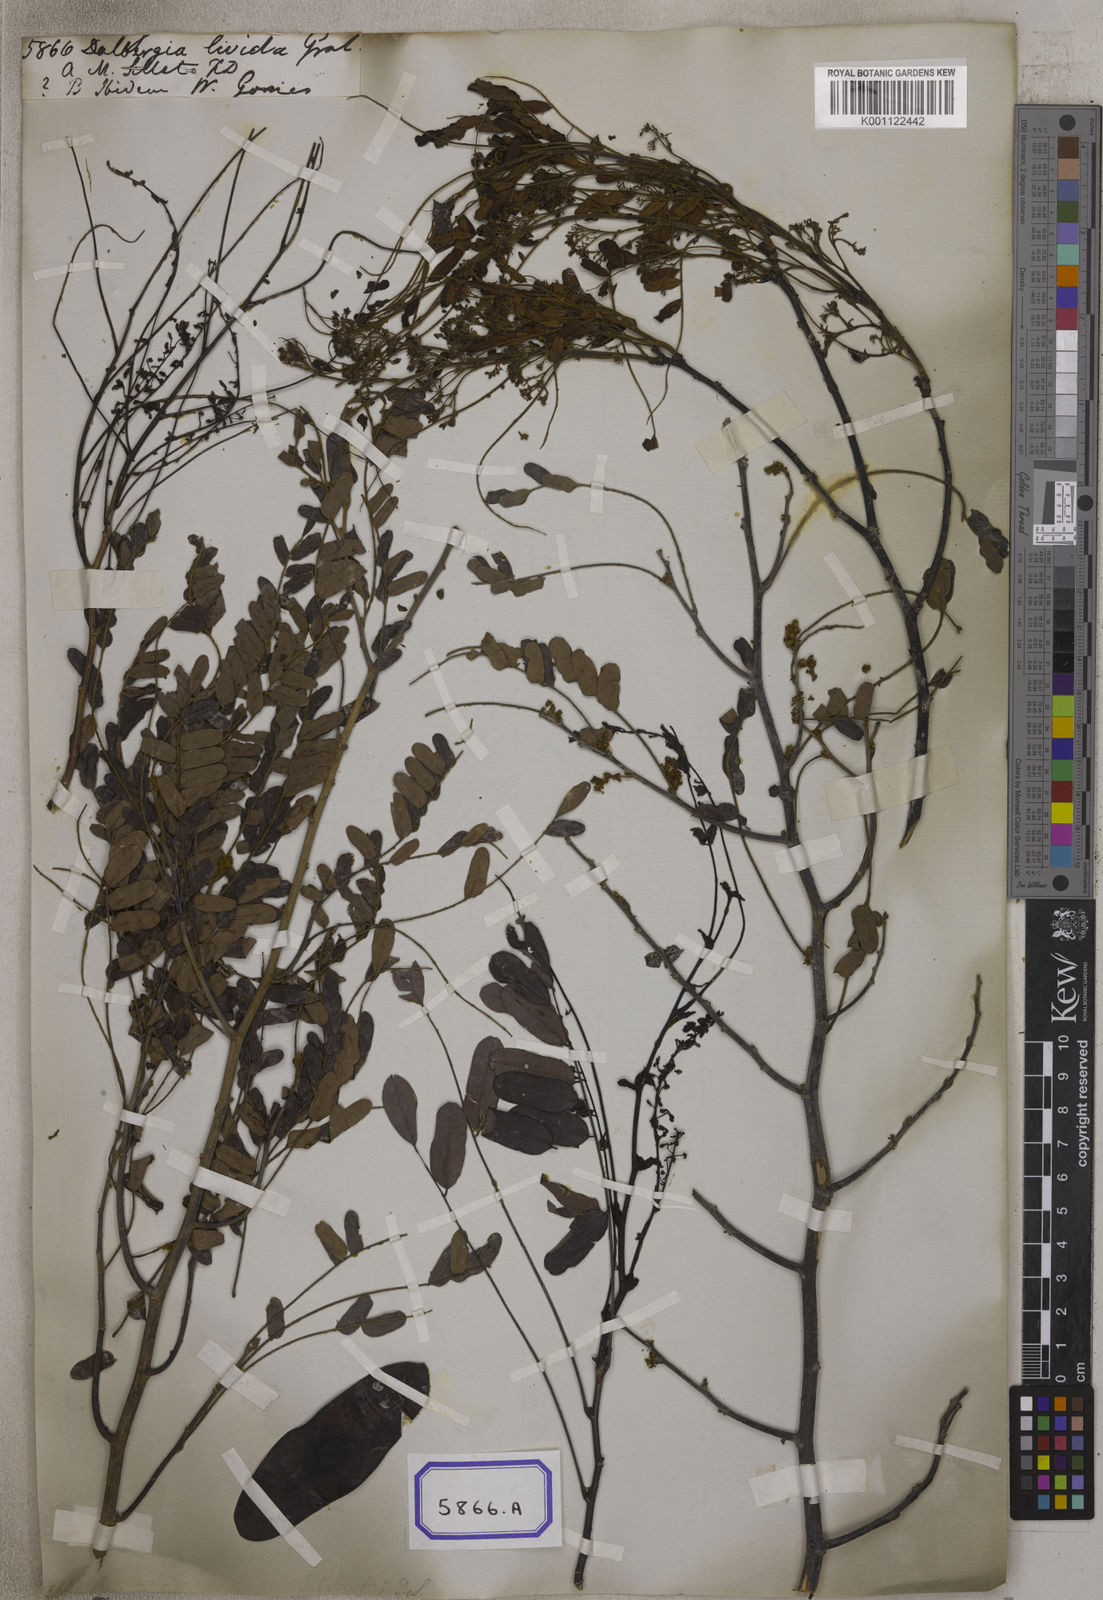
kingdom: Plantae
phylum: Tracheophyta
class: Magnoliopsida
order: Fabales
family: Fabaceae
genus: Dalbergia
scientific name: Dalbergia
